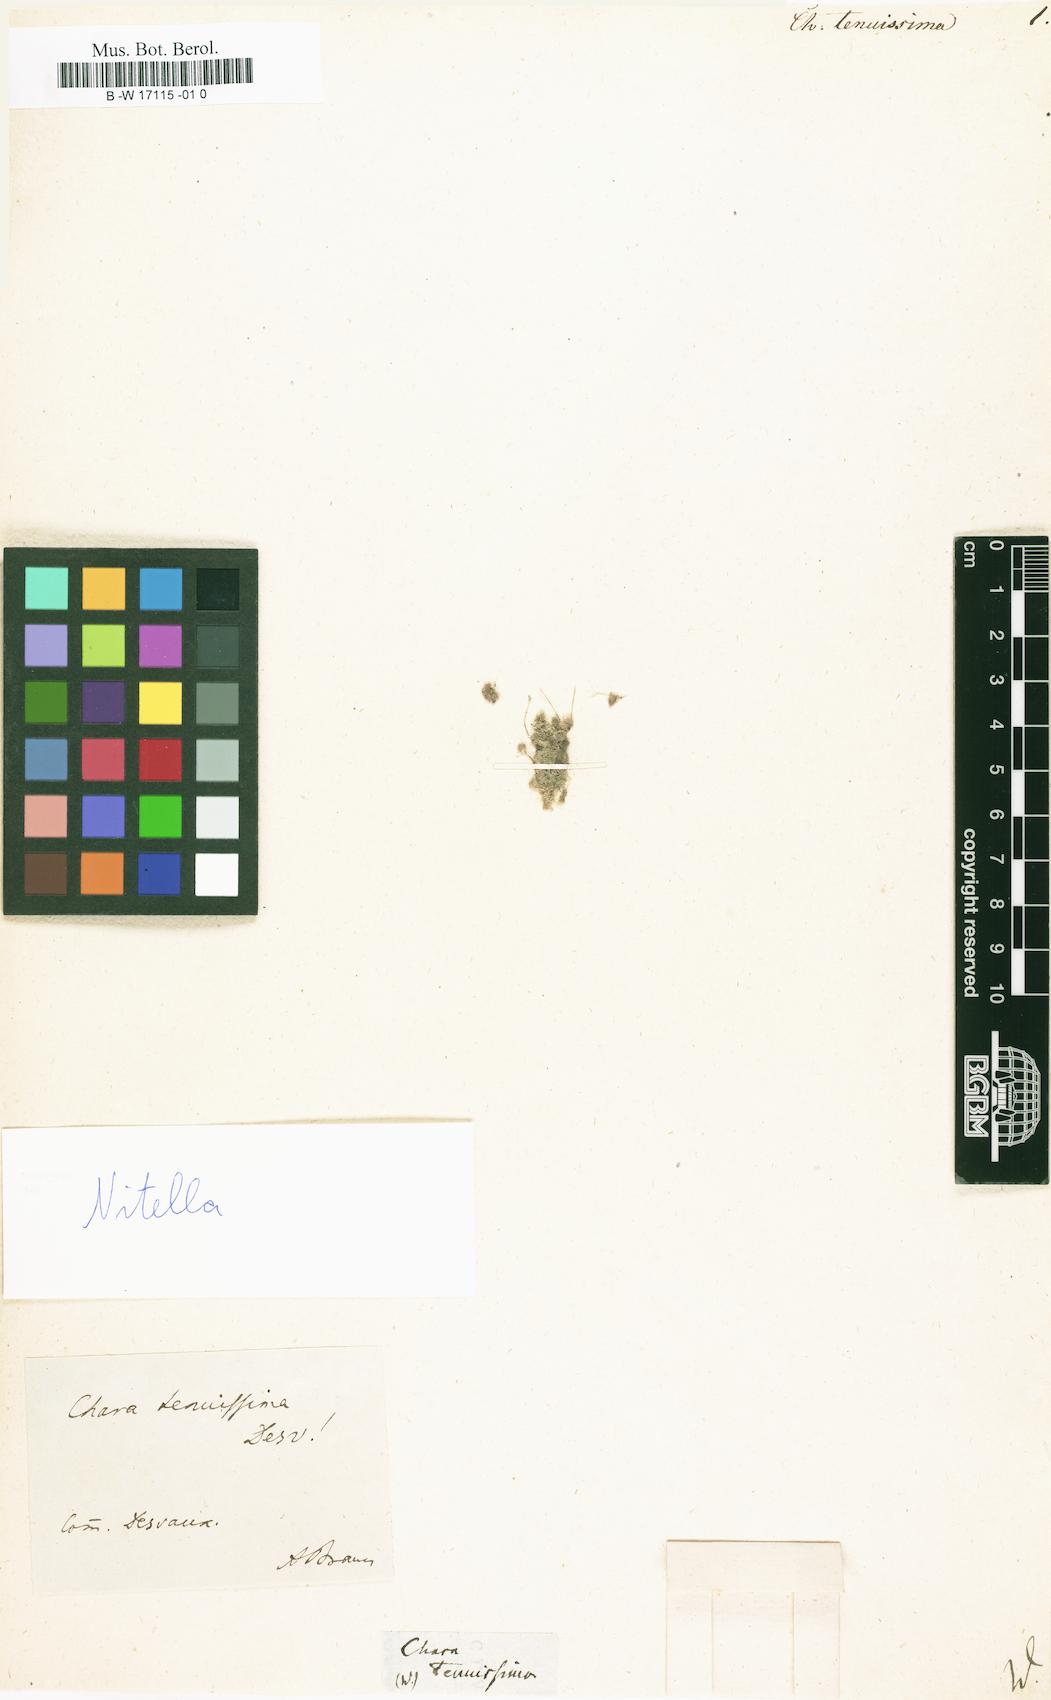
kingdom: Plantae
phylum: Charophyta
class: Charophyceae
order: Charales
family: Characeae
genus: Nitella
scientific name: Nitella tenuissima
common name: Compact stonewort
